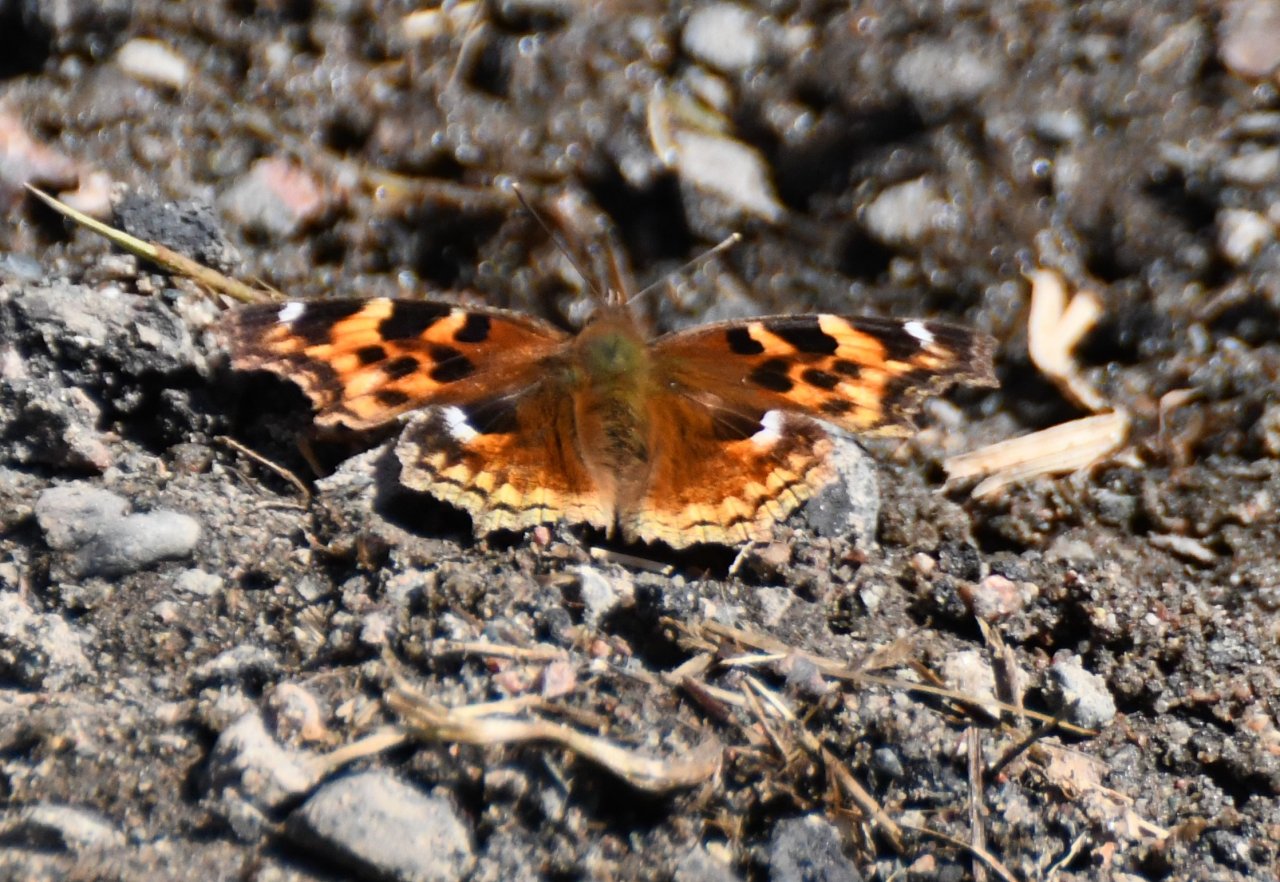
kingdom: Animalia
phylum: Arthropoda
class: Insecta
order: Lepidoptera
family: Nymphalidae
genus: Polygonia
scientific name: Polygonia vaualbum
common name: Compton Tortoiseshell
